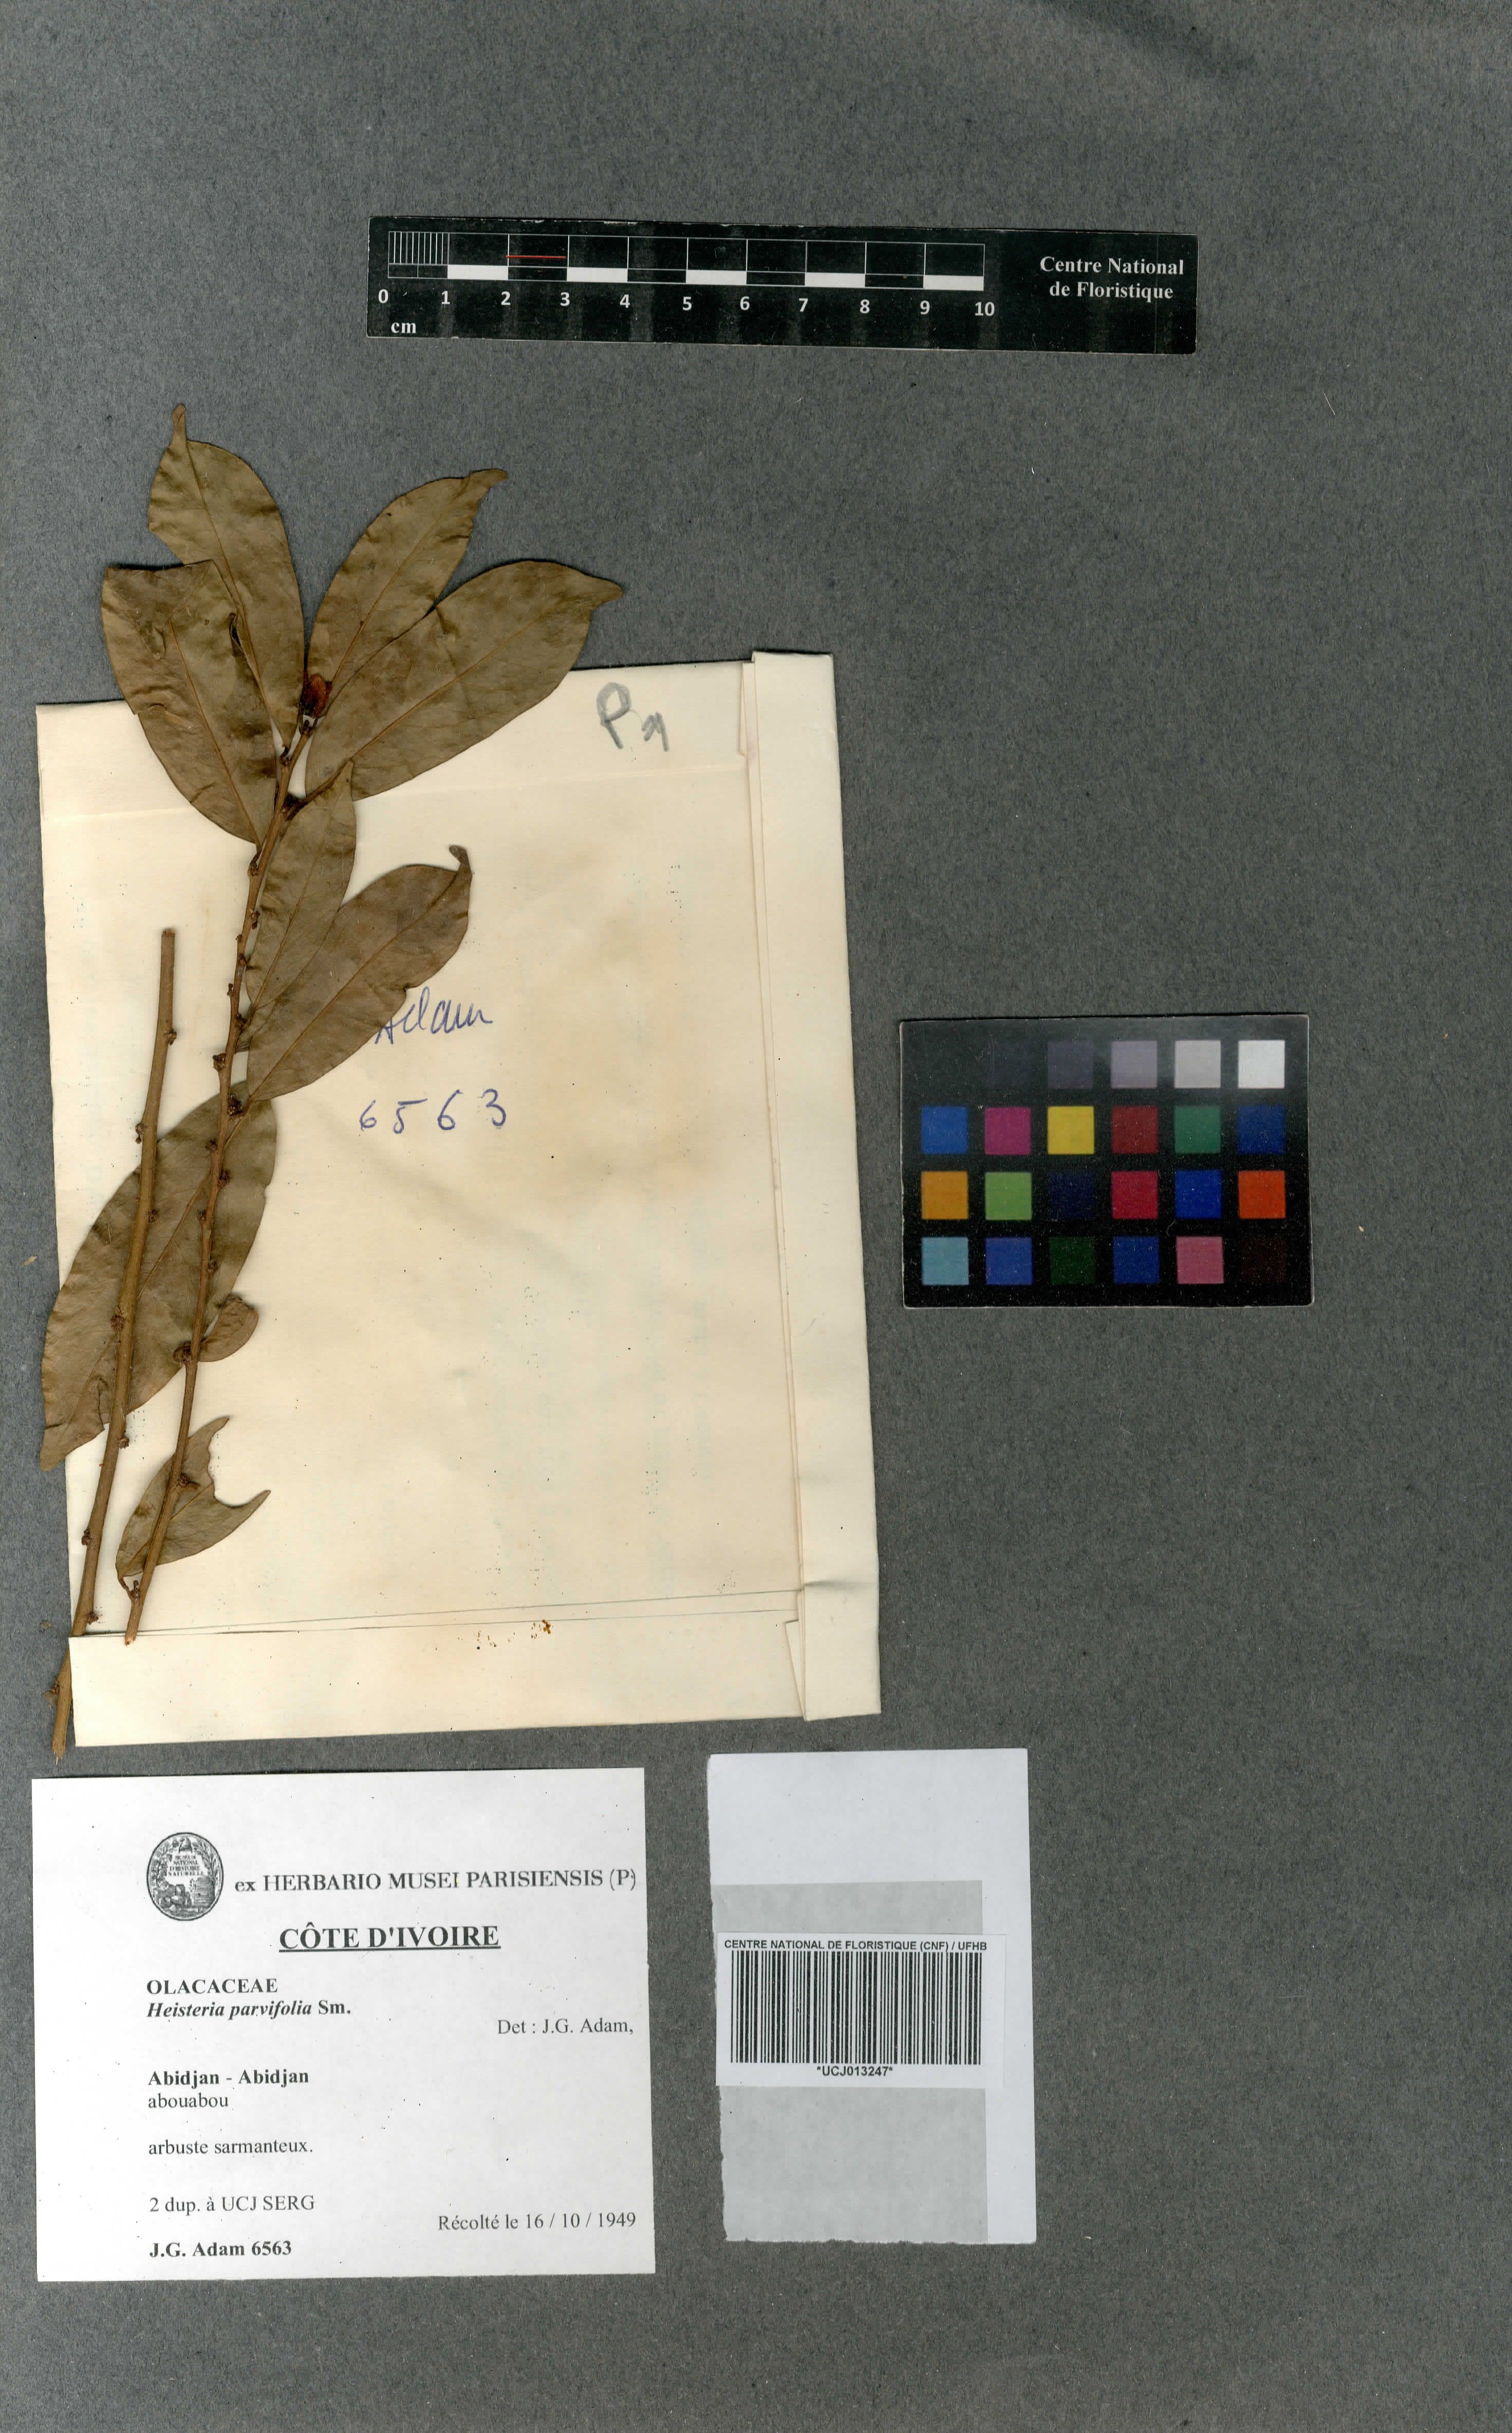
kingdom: Plantae
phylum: Tracheophyta
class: Magnoliopsida
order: Santalales
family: Erythropalaceae
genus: Heisteria
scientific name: Heisteria parvifolia
